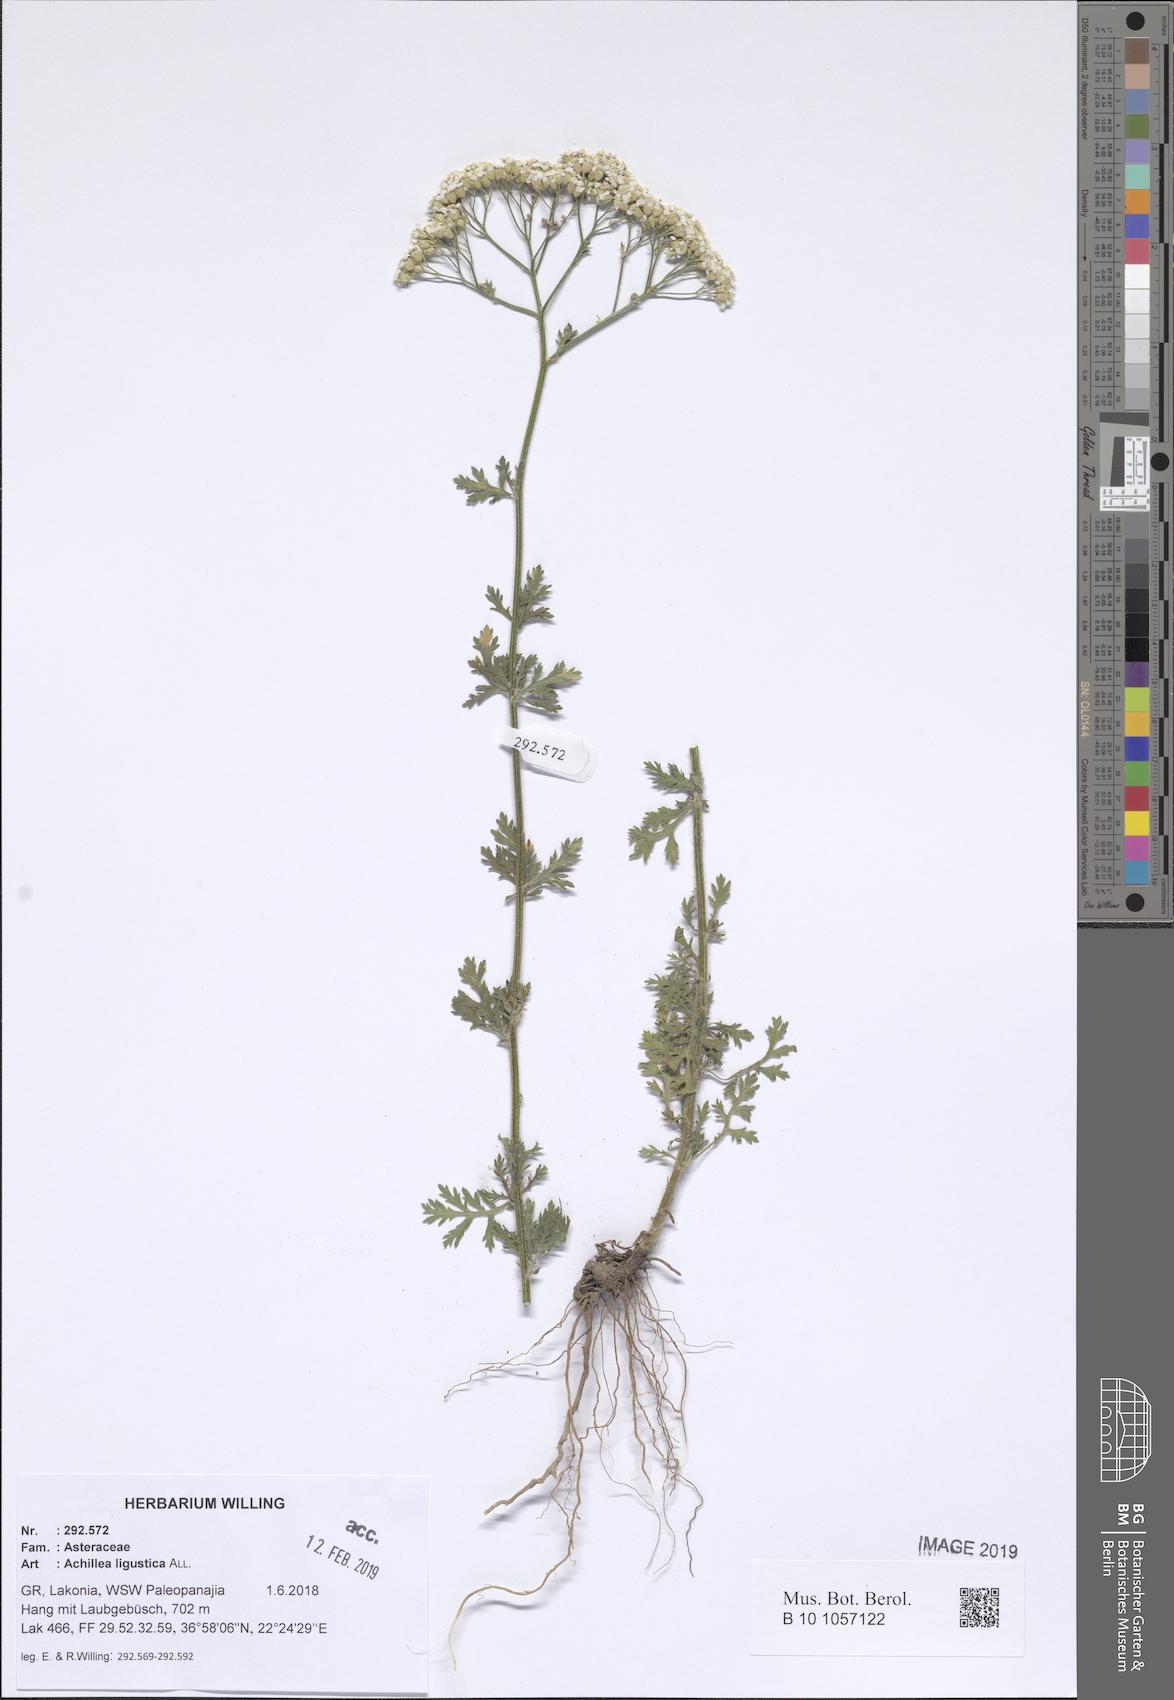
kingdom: Plantae
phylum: Tracheophyta
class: Magnoliopsida
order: Asterales
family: Asteraceae
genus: Achillea
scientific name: Achillea ligustica
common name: Southern yarrow
